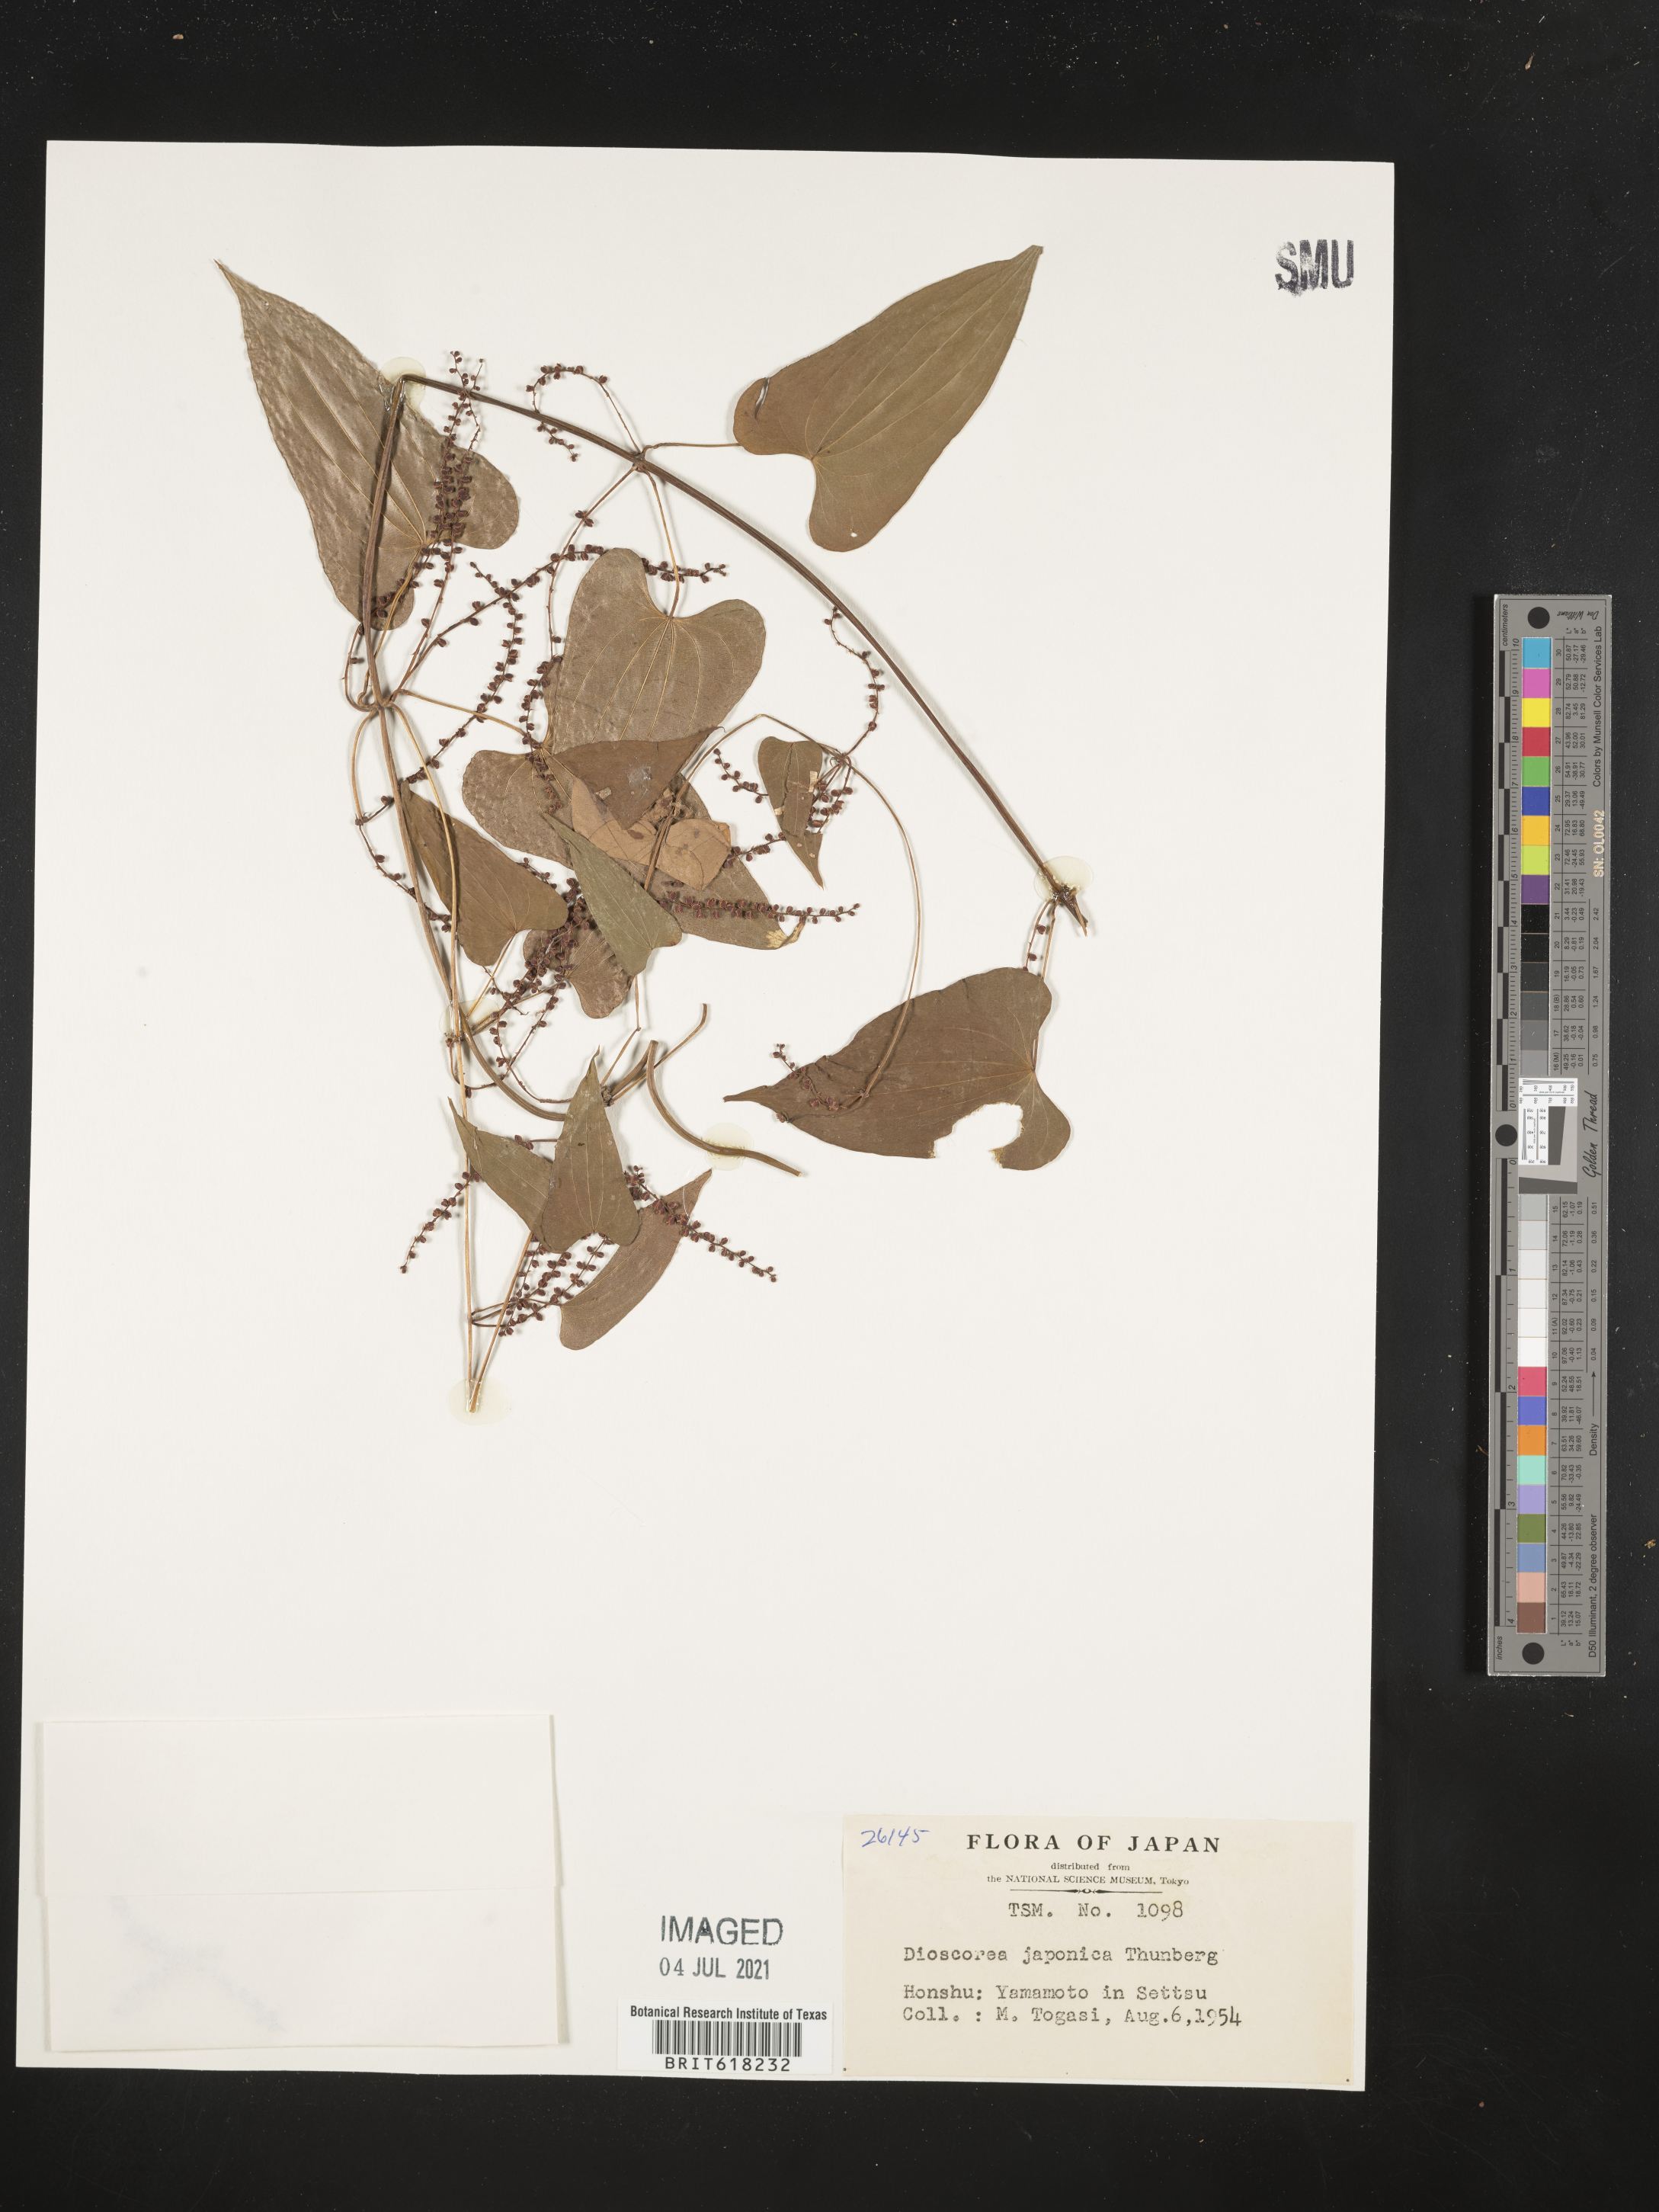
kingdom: Plantae
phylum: Tracheophyta
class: Liliopsida
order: Dioscoreales
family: Dioscoreaceae
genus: Dioscorea
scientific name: Dioscorea japonica
